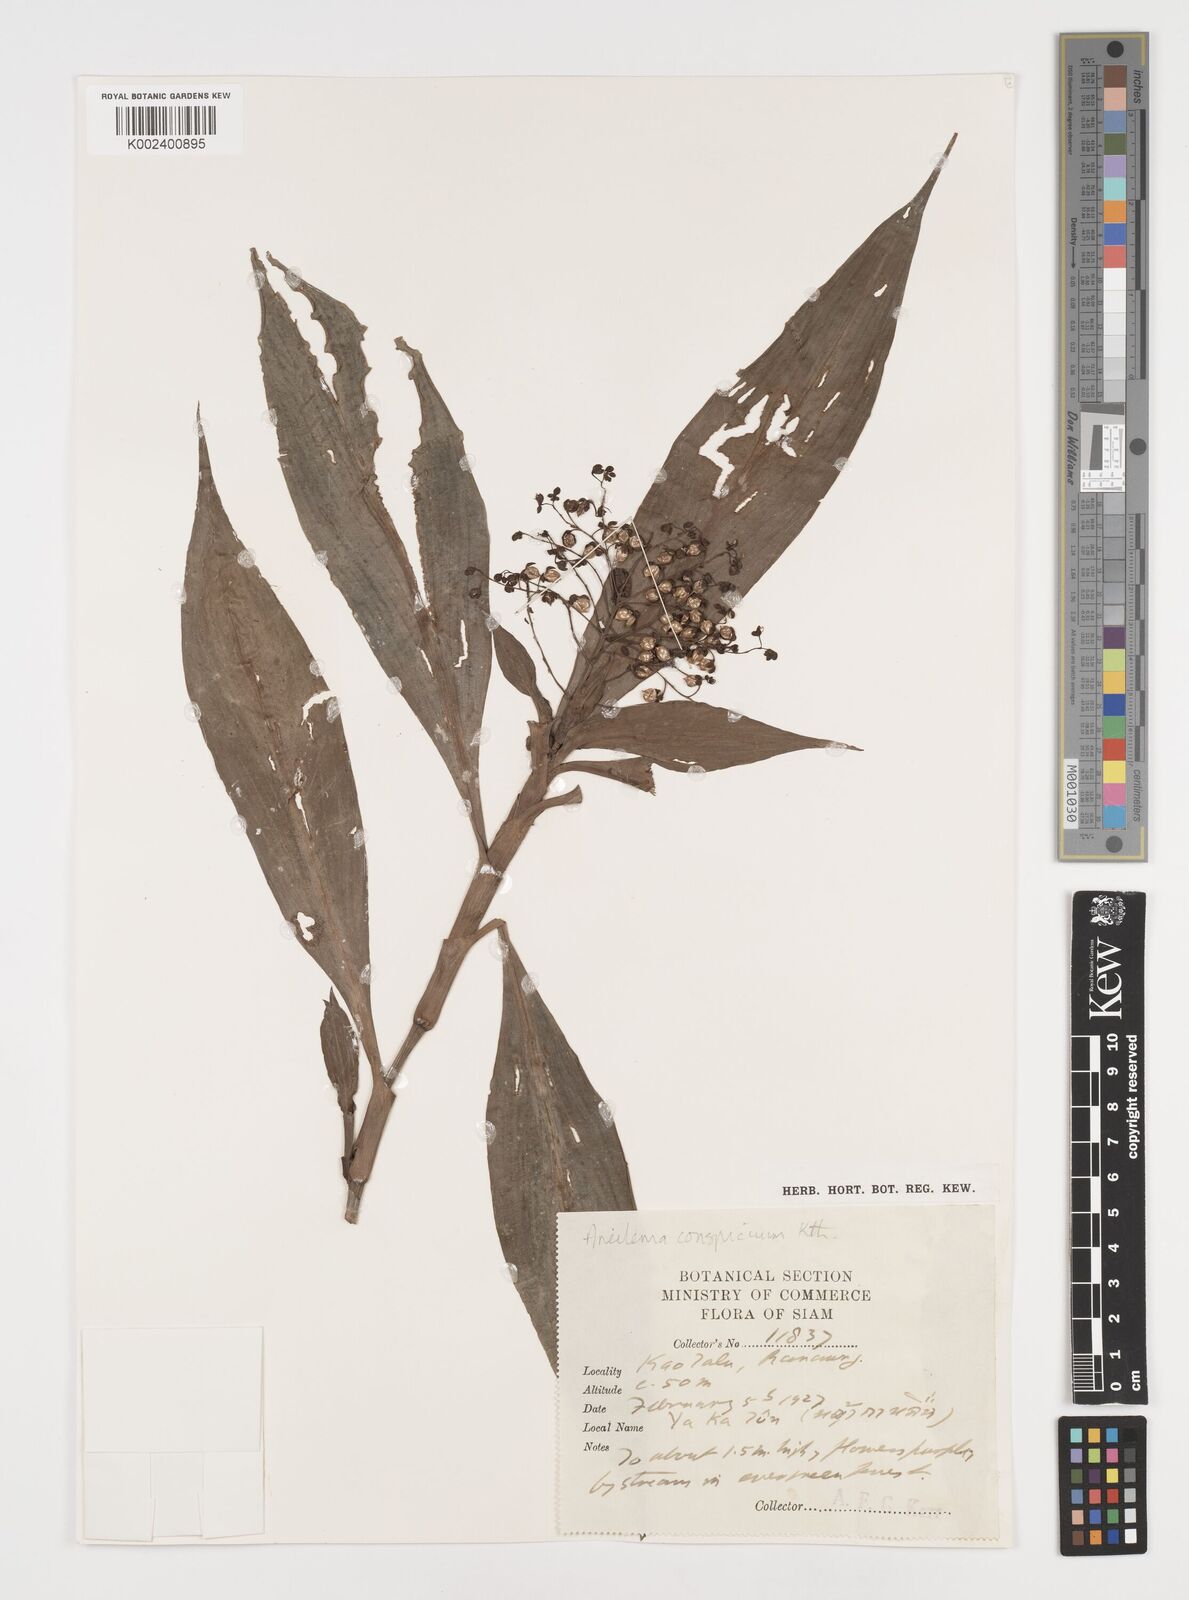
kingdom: Plantae
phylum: Tracheophyta
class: Liliopsida
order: Commelinales
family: Commelinaceae
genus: Dictyospermum
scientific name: Dictyospermum conspicuum
